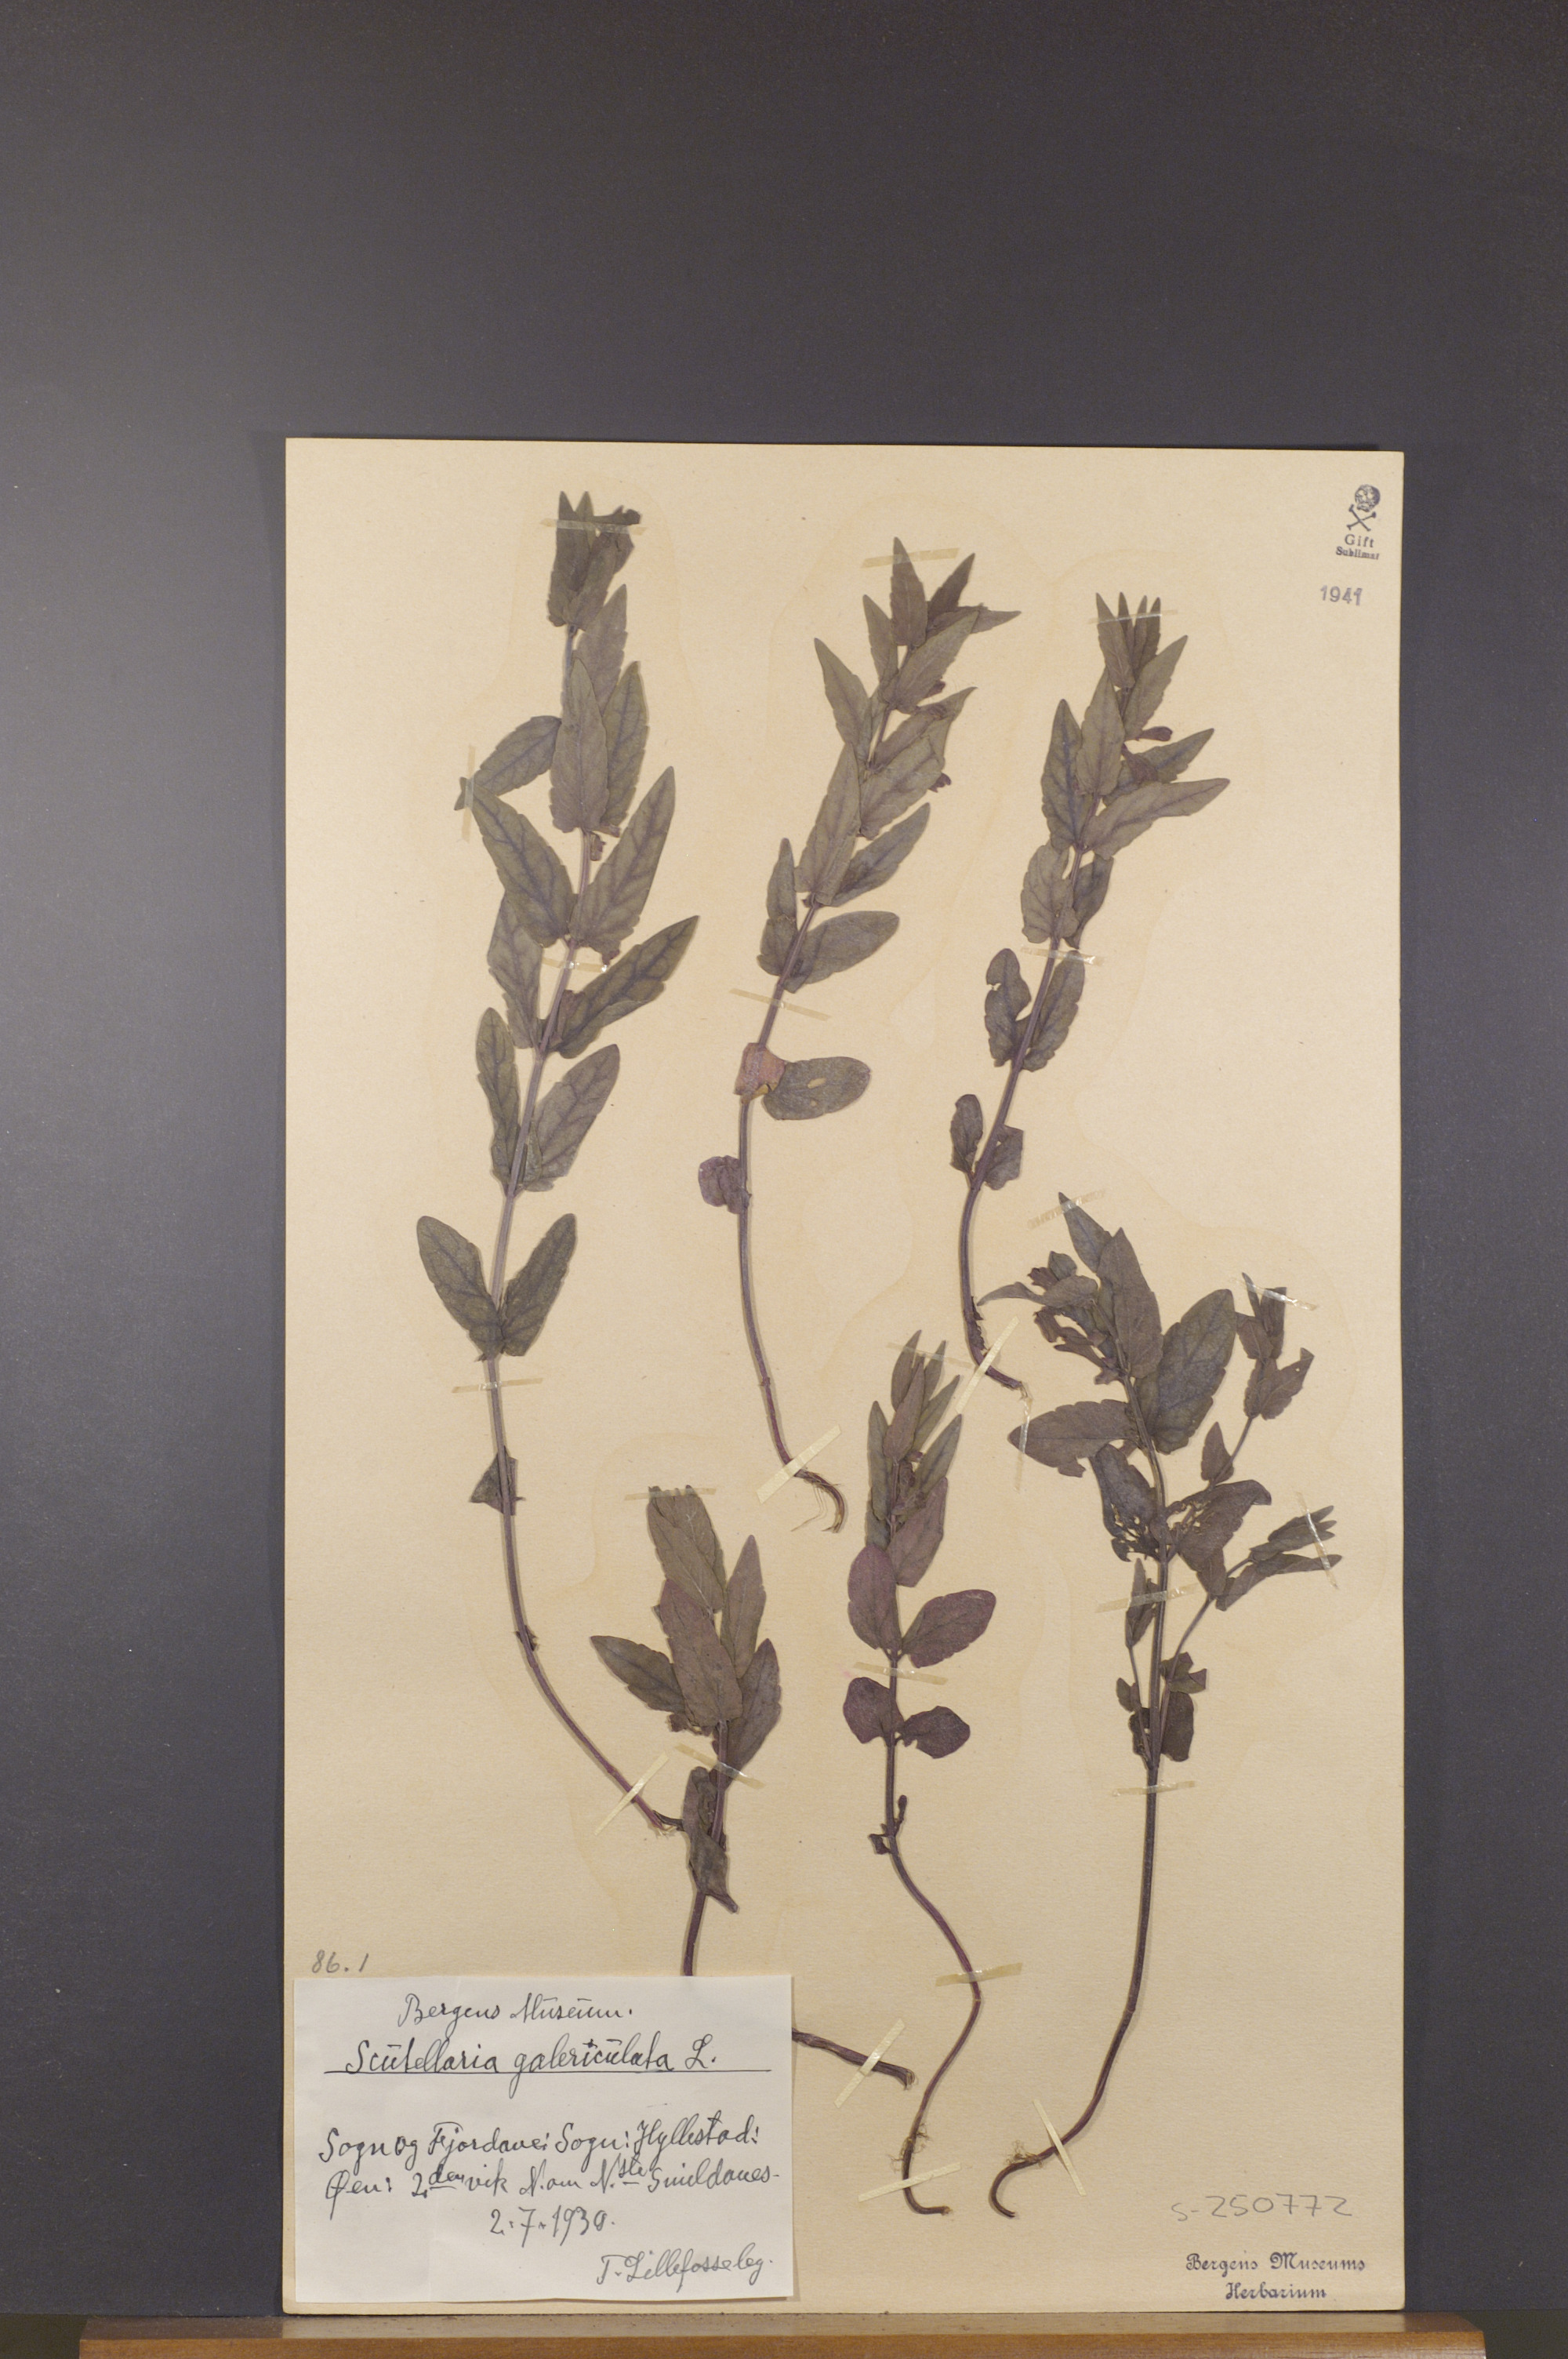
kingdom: Plantae
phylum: Tracheophyta
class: Magnoliopsida
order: Lamiales
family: Lamiaceae
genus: Scutellaria
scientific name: Scutellaria galericulata
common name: Skullcap
